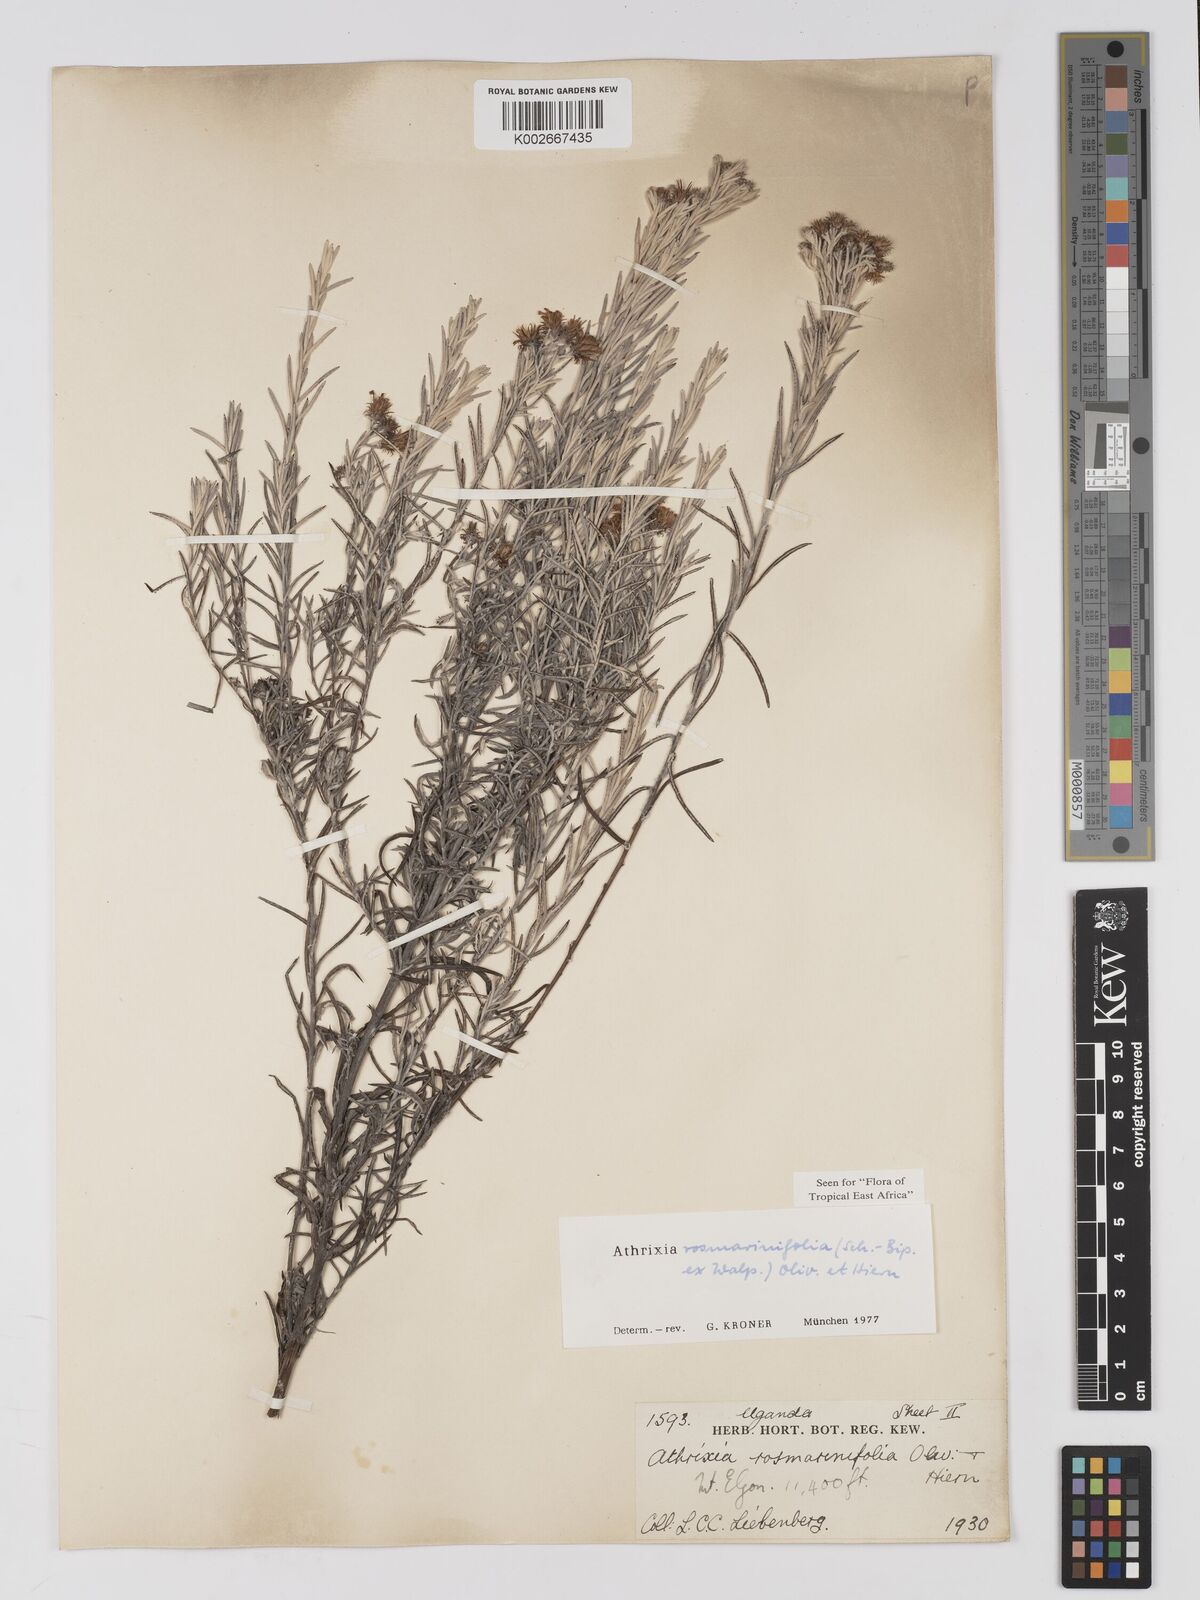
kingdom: Plantae
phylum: Tracheophyta
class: Magnoliopsida
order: Asterales
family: Asteraceae
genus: Athrixia
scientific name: Athrixia rosmarinifolia
